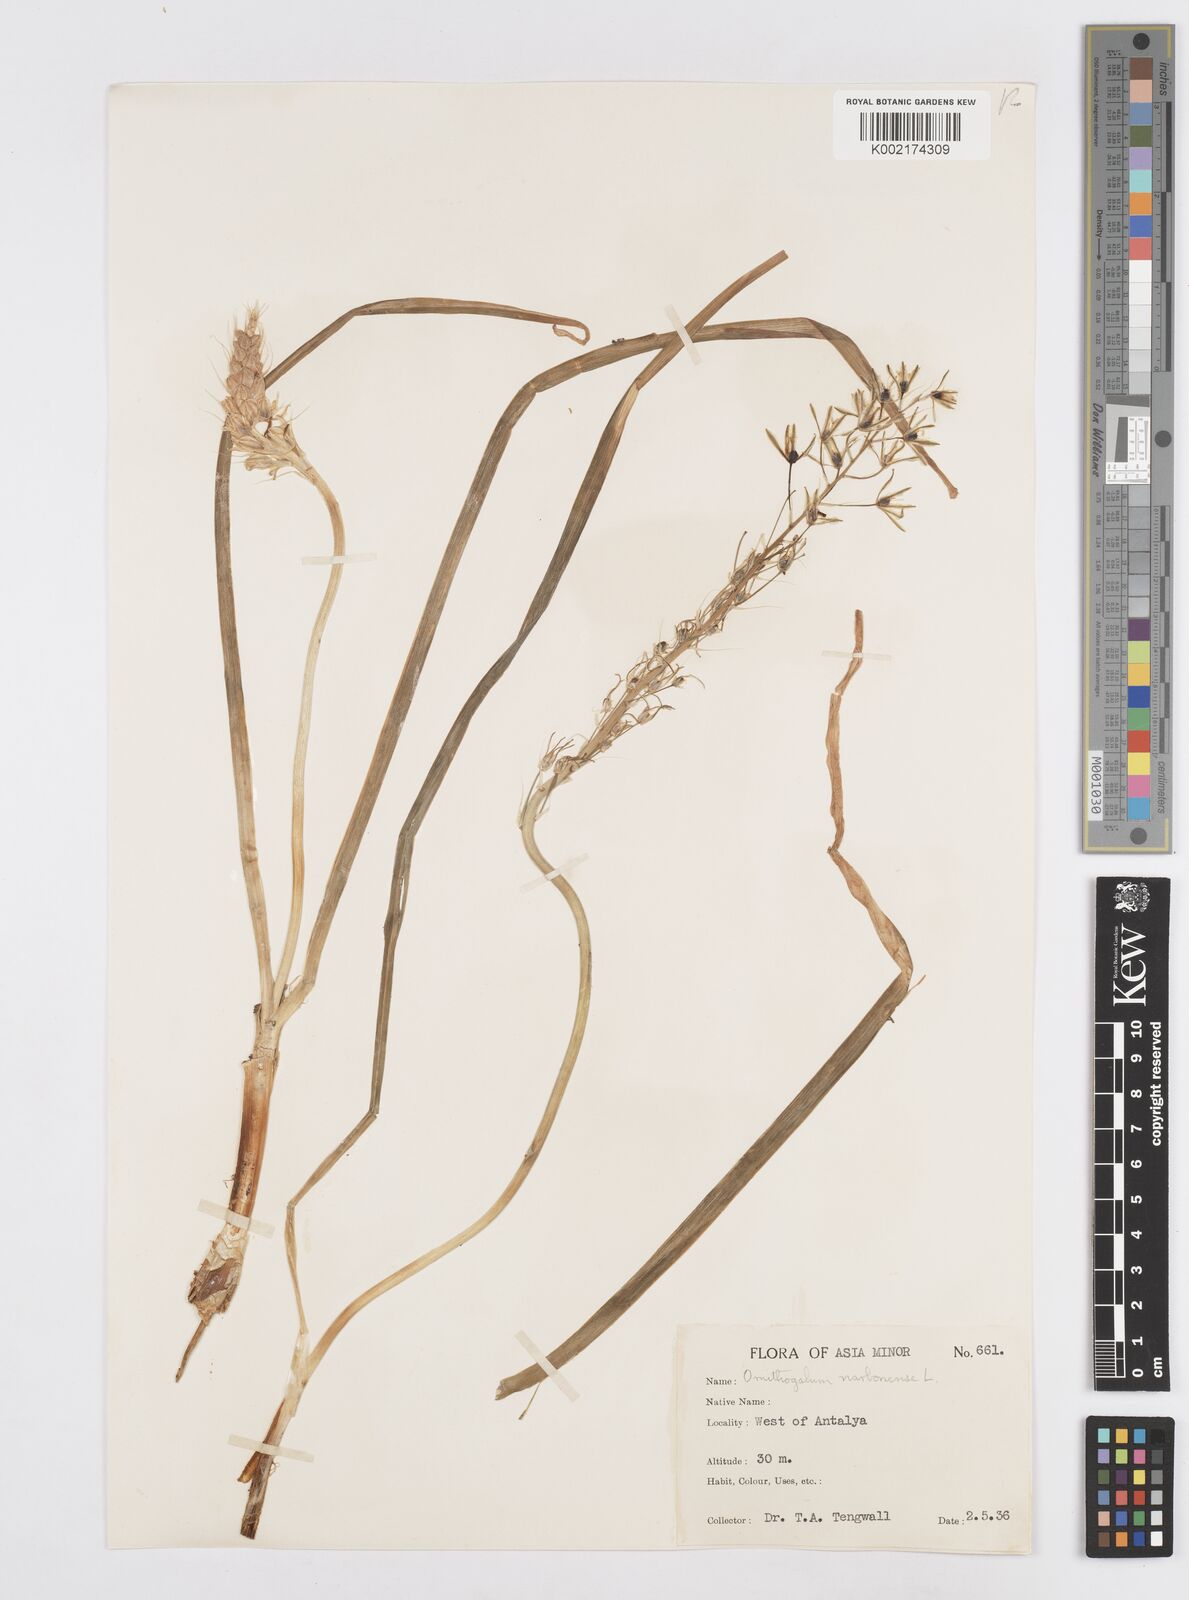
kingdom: Plantae
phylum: Tracheophyta
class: Liliopsida
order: Asparagales
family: Asparagaceae
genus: Ornithogalum
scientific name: Ornithogalum narbonense
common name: Bath-asparagus
